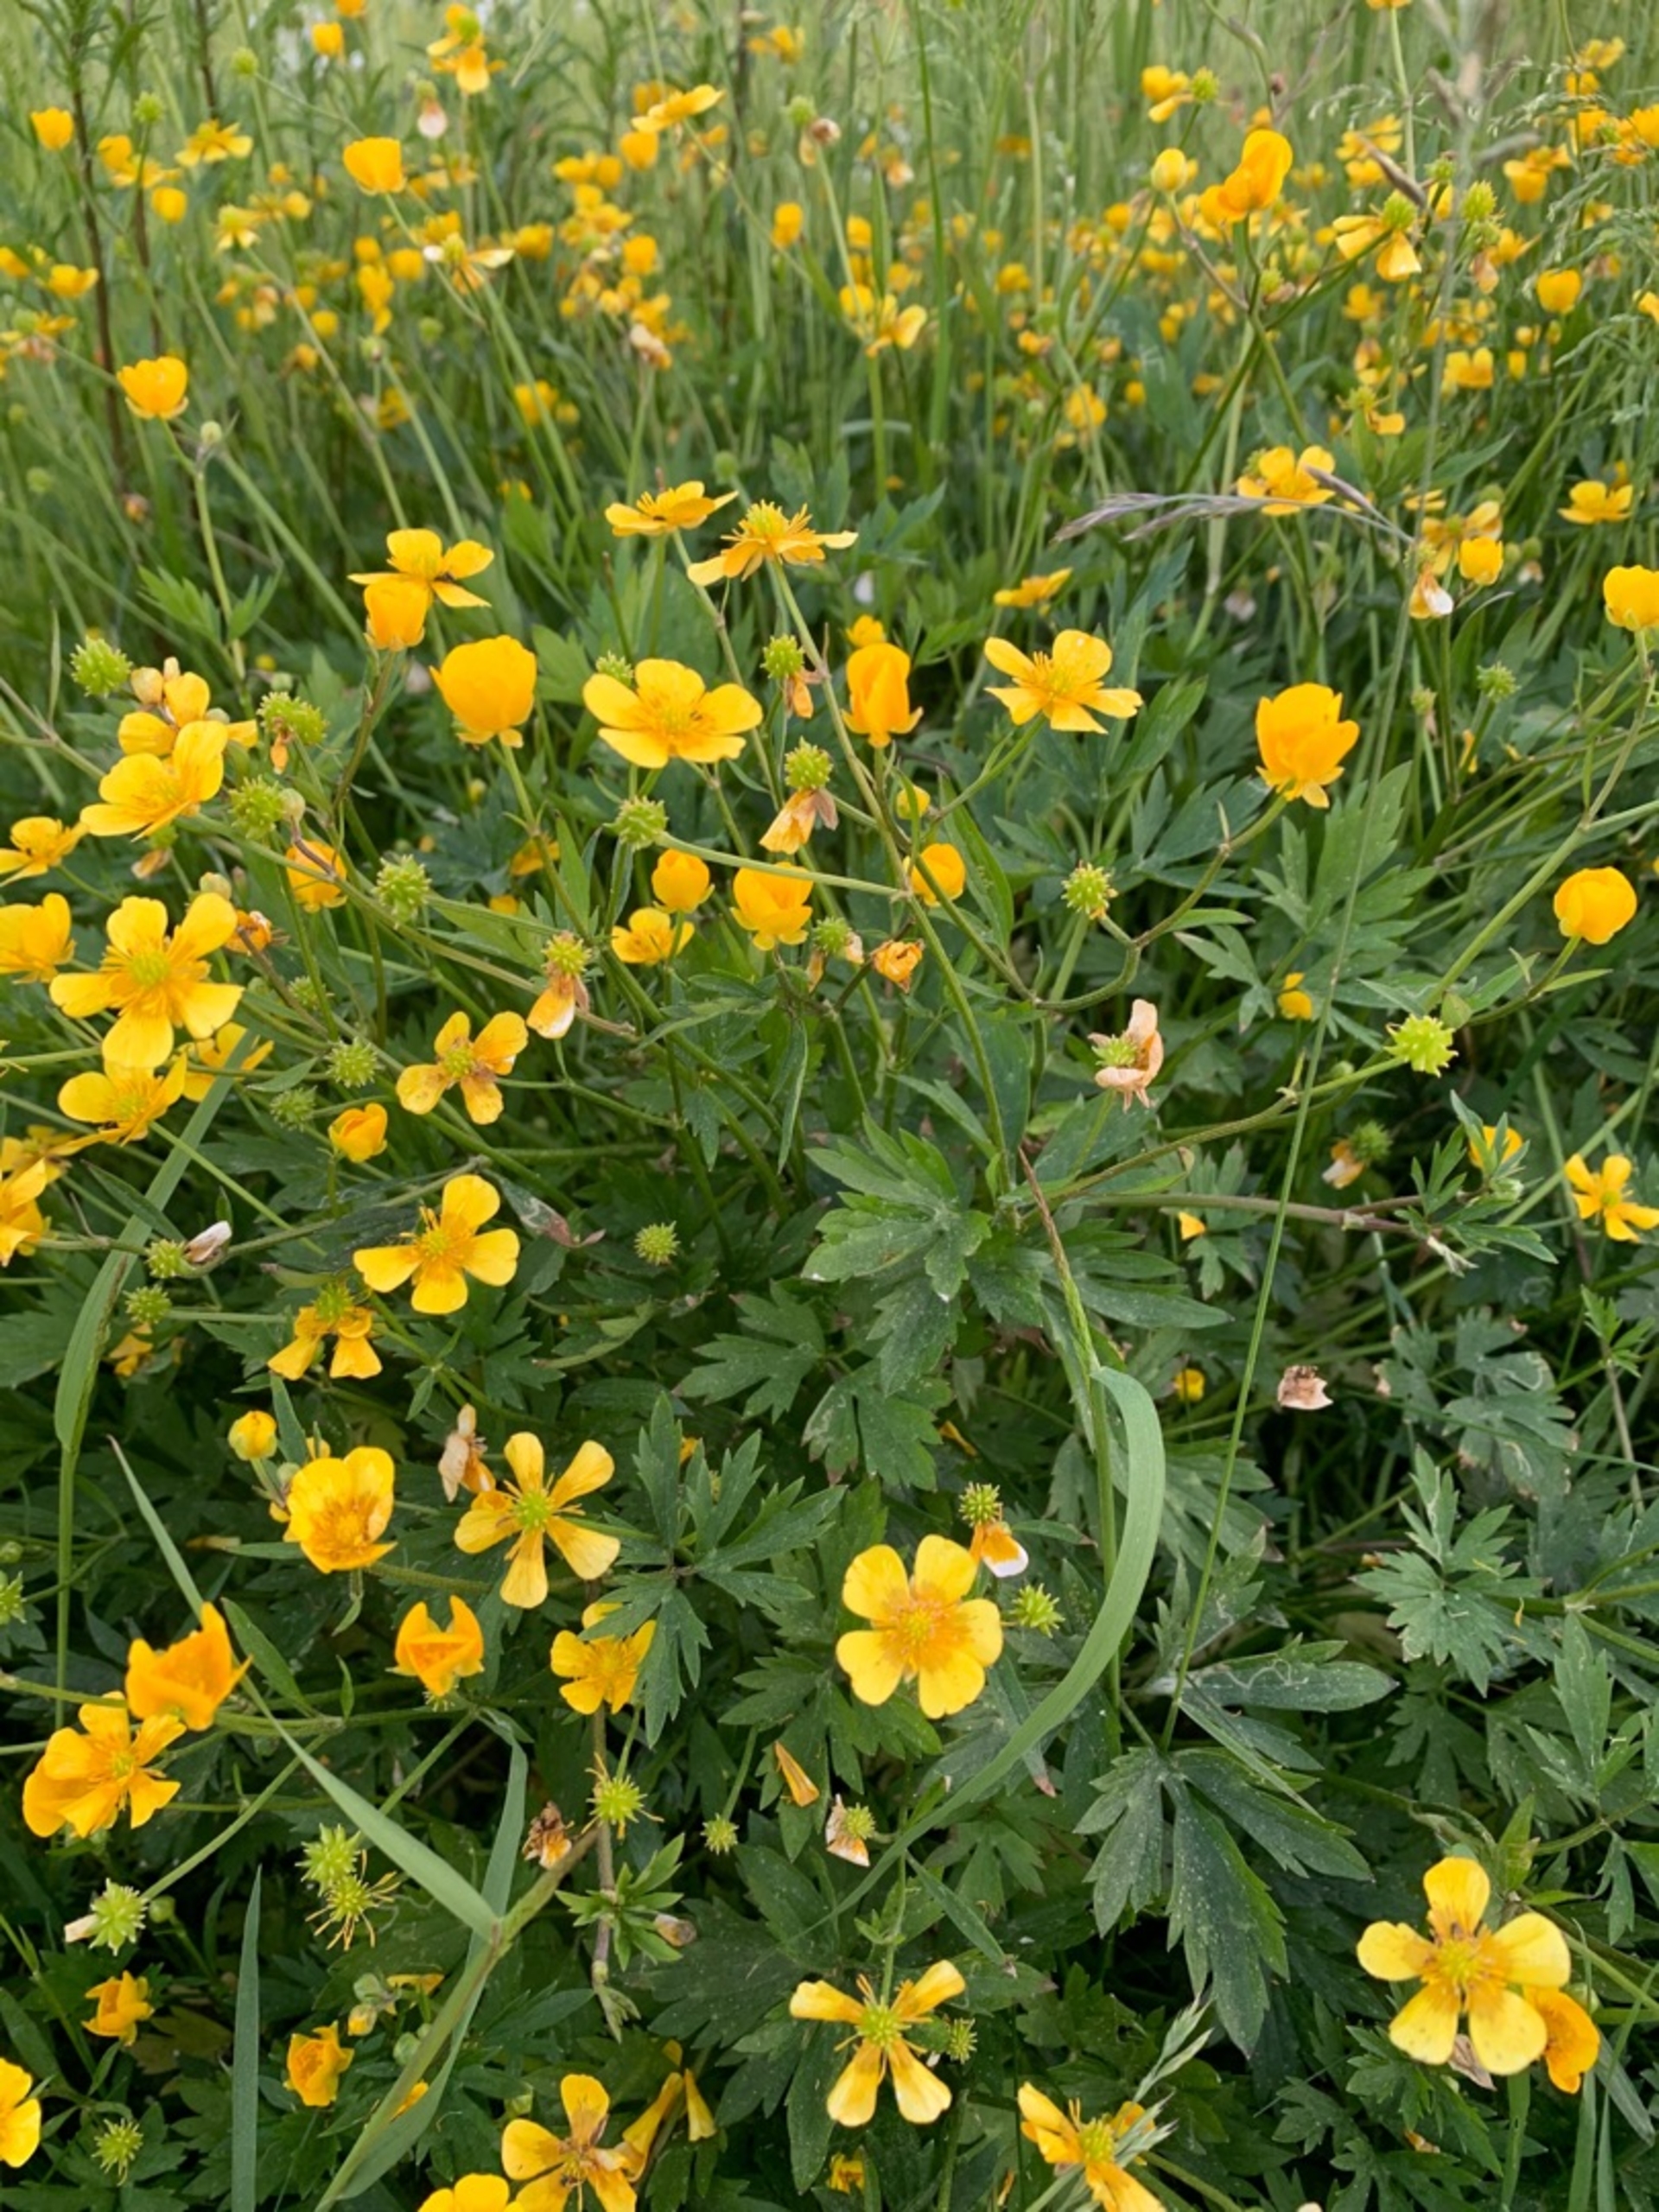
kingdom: Plantae
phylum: Tracheophyta
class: Magnoliopsida
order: Ranunculales
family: Ranunculaceae
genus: Ranunculus
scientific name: Ranunculus repens
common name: Lav ranunkel
